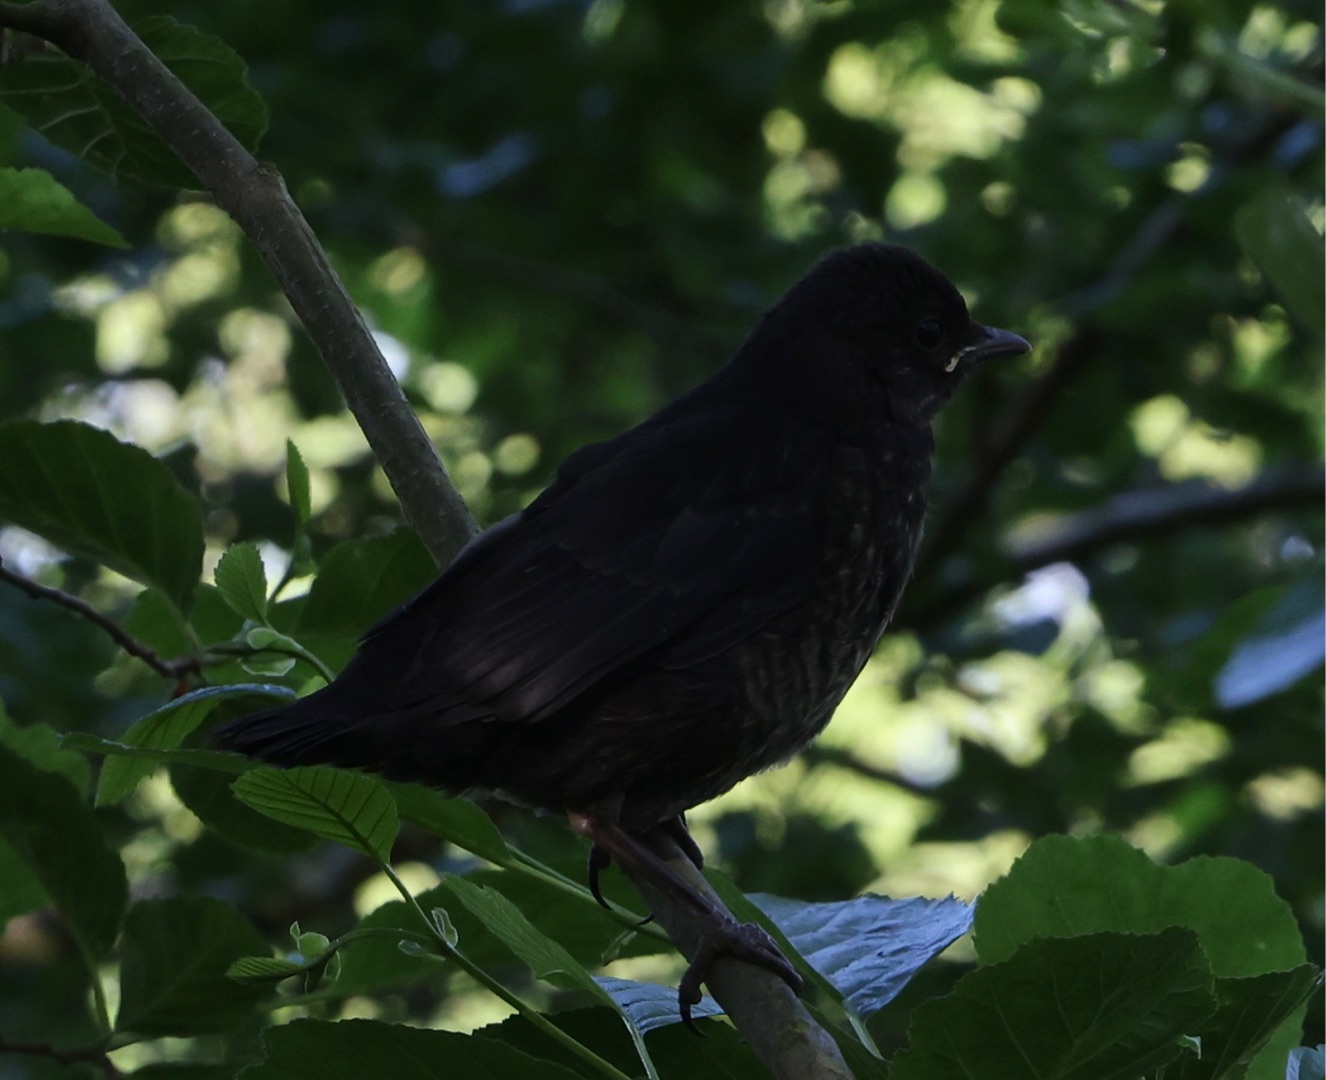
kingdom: Animalia
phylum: Chordata
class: Aves
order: Passeriformes
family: Turdidae
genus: Turdus
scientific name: Turdus merula
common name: Solsort
